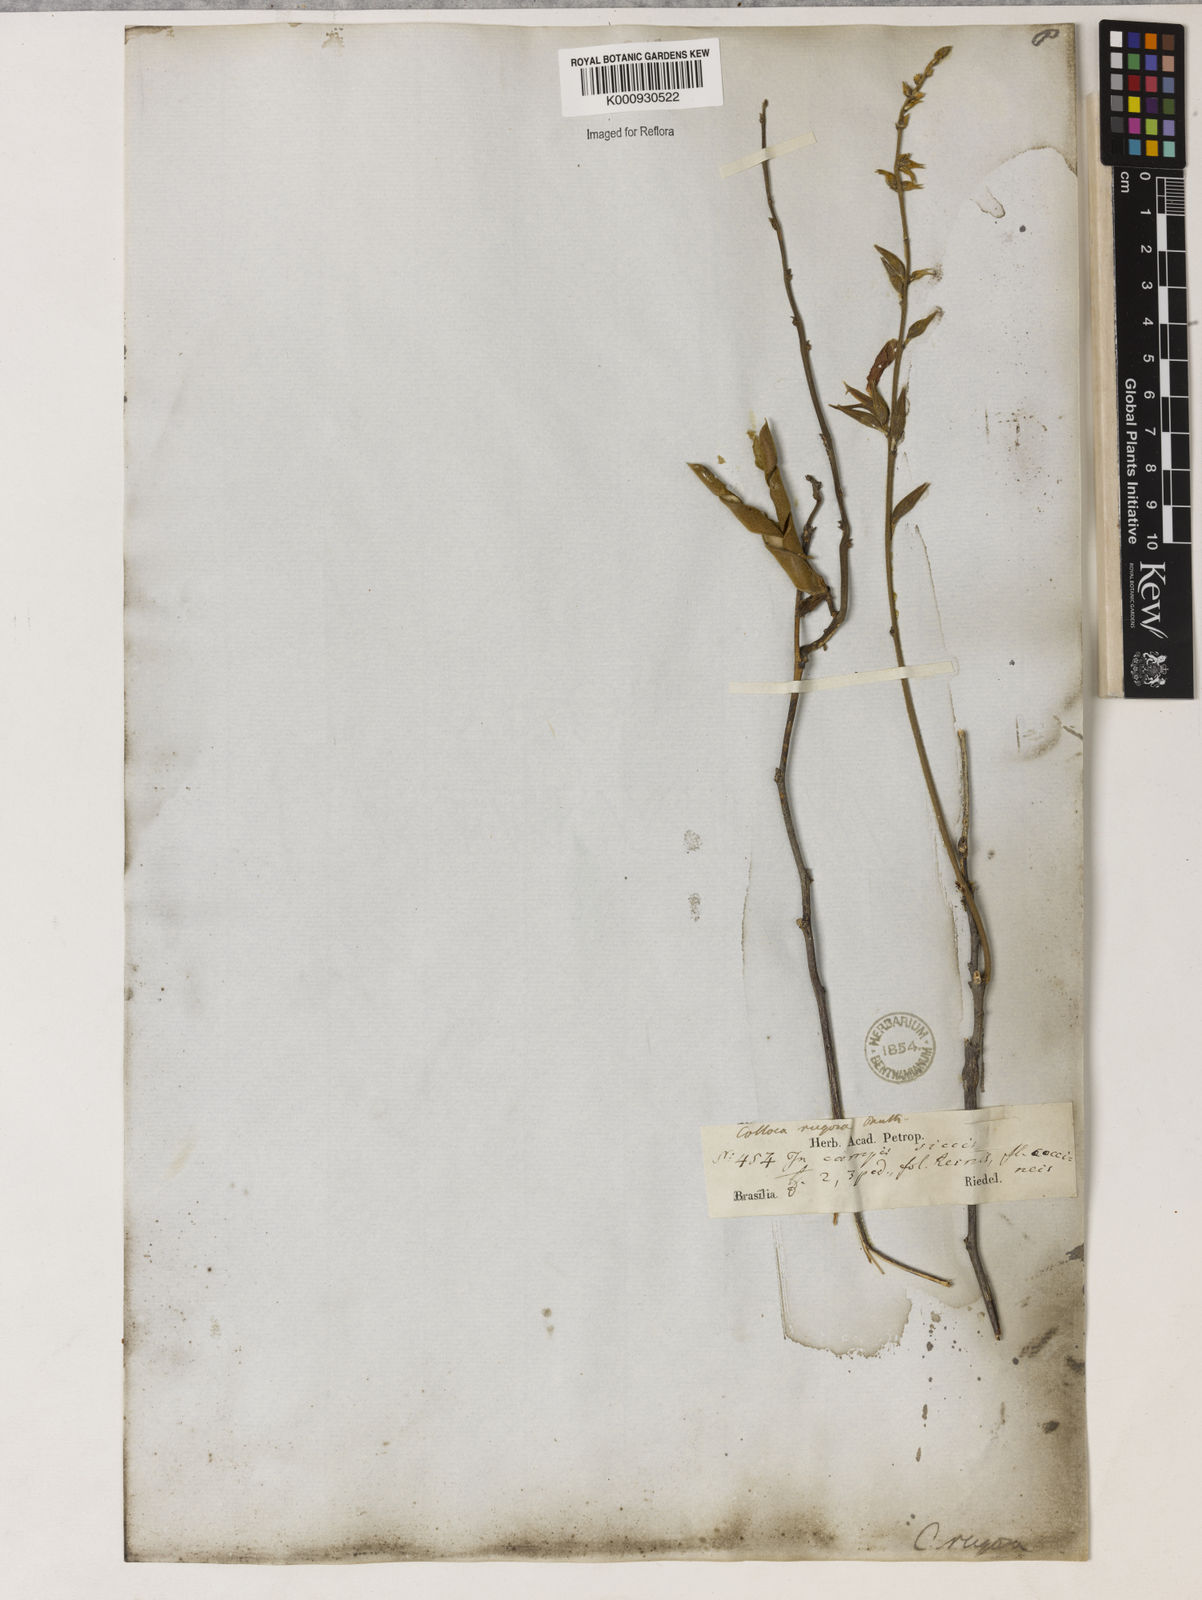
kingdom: Plantae
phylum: Tracheophyta
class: Magnoliopsida
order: Fabales
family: Fabaceae
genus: Galactia
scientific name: Galactia
